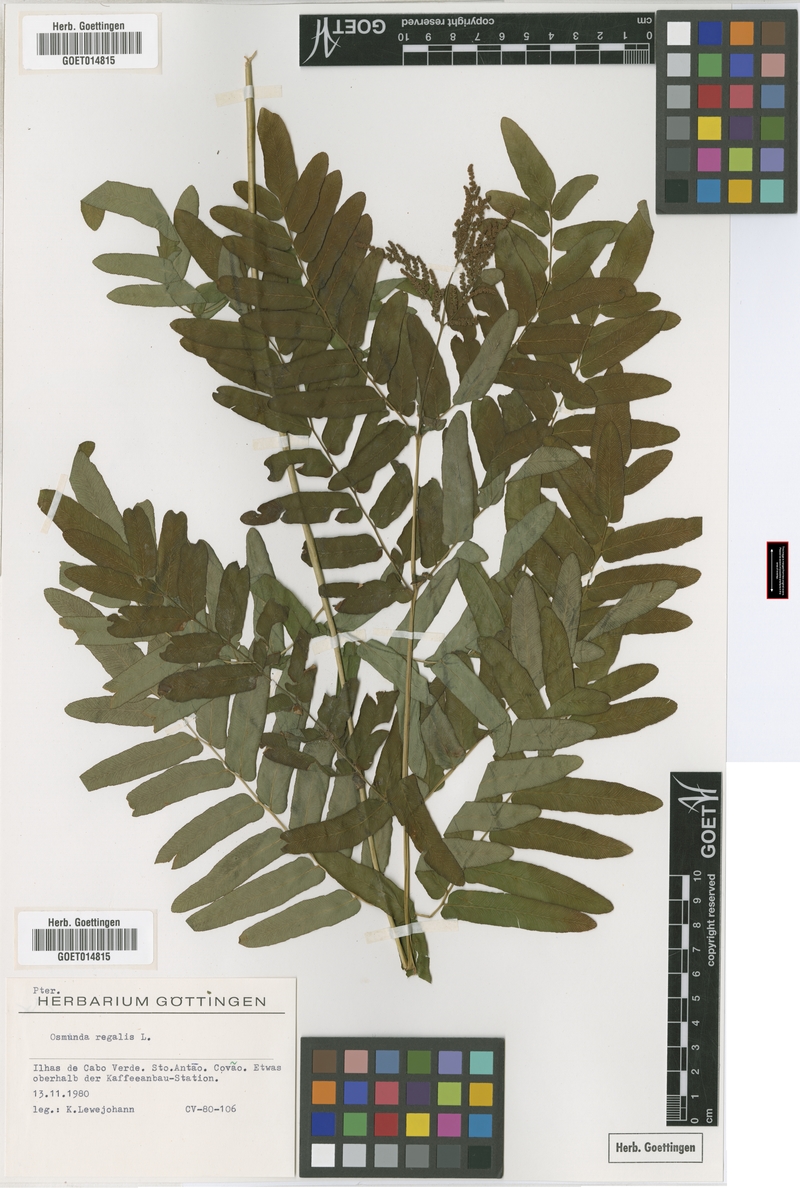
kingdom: Plantae
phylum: Tracheophyta
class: Polypodiopsida
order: Osmundales
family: Osmundaceae
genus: Osmunda
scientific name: Osmunda regalis
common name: Royal fern
